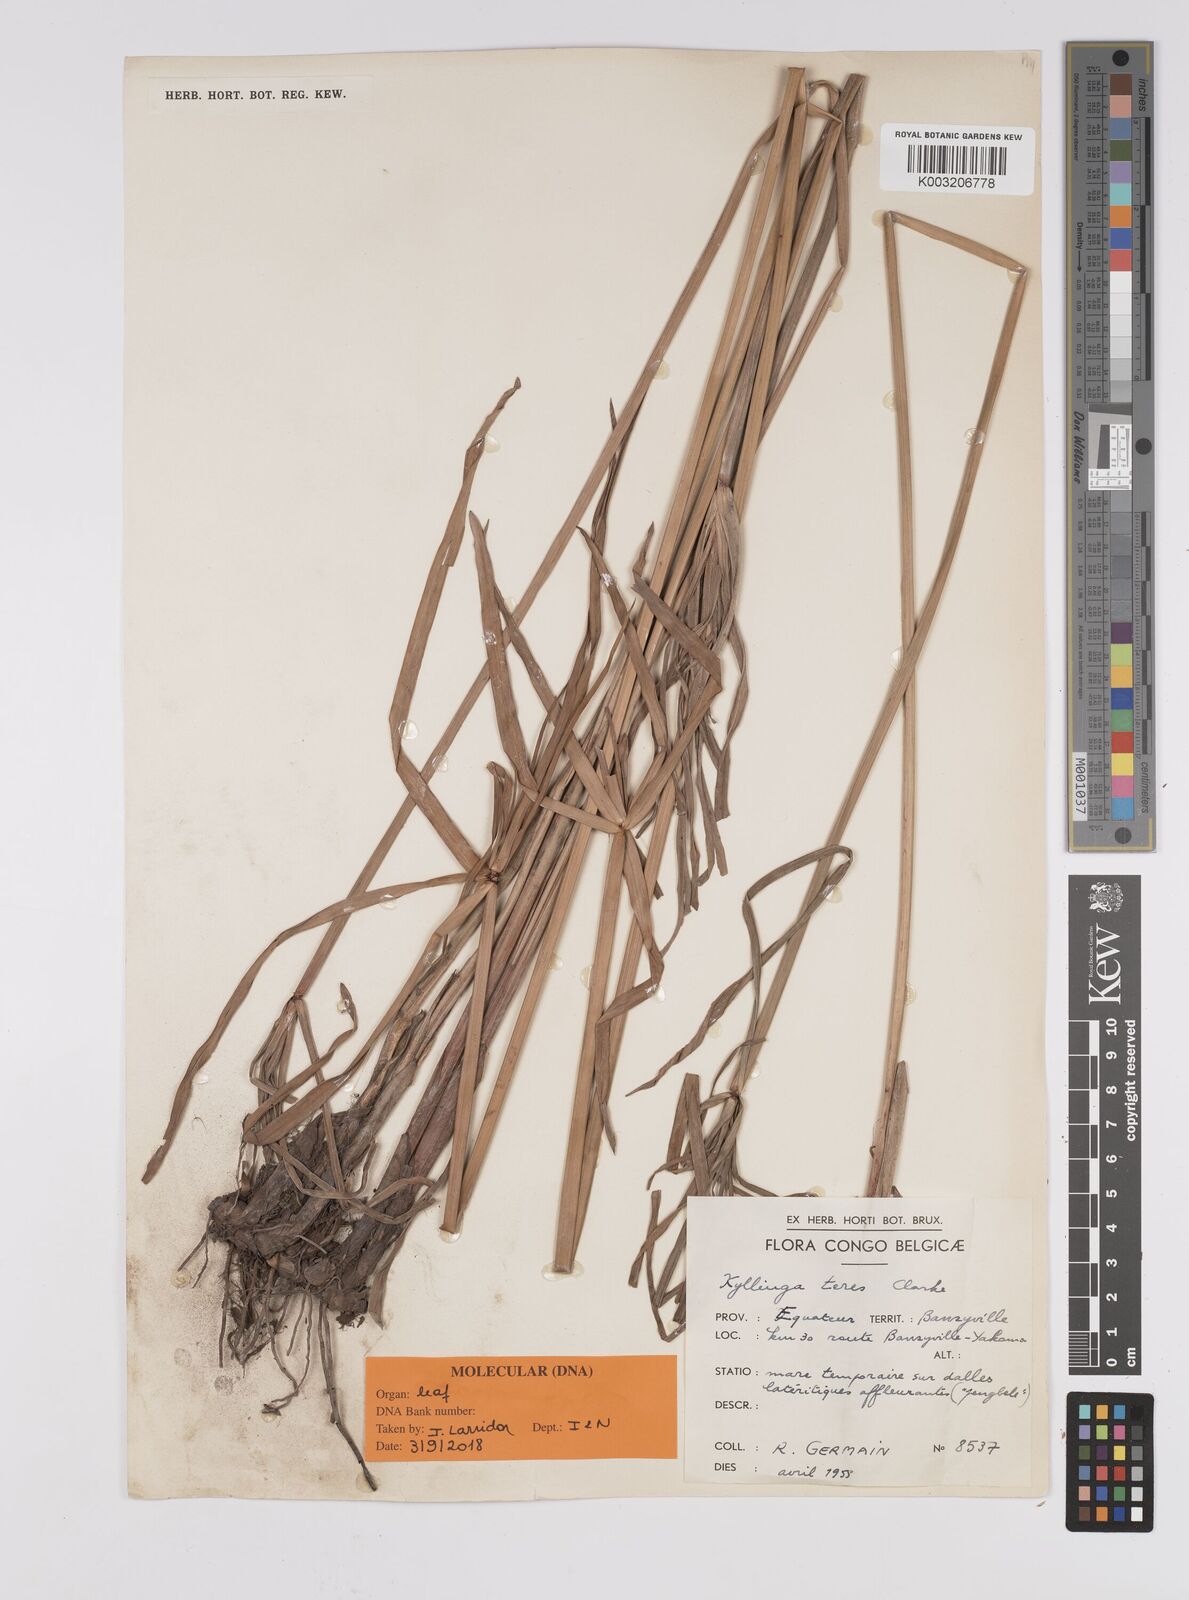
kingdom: Plantae
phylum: Tracheophyta
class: Liliopsida
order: Poales
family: Cyperaceae
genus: Cyperus
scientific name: Cyperus
